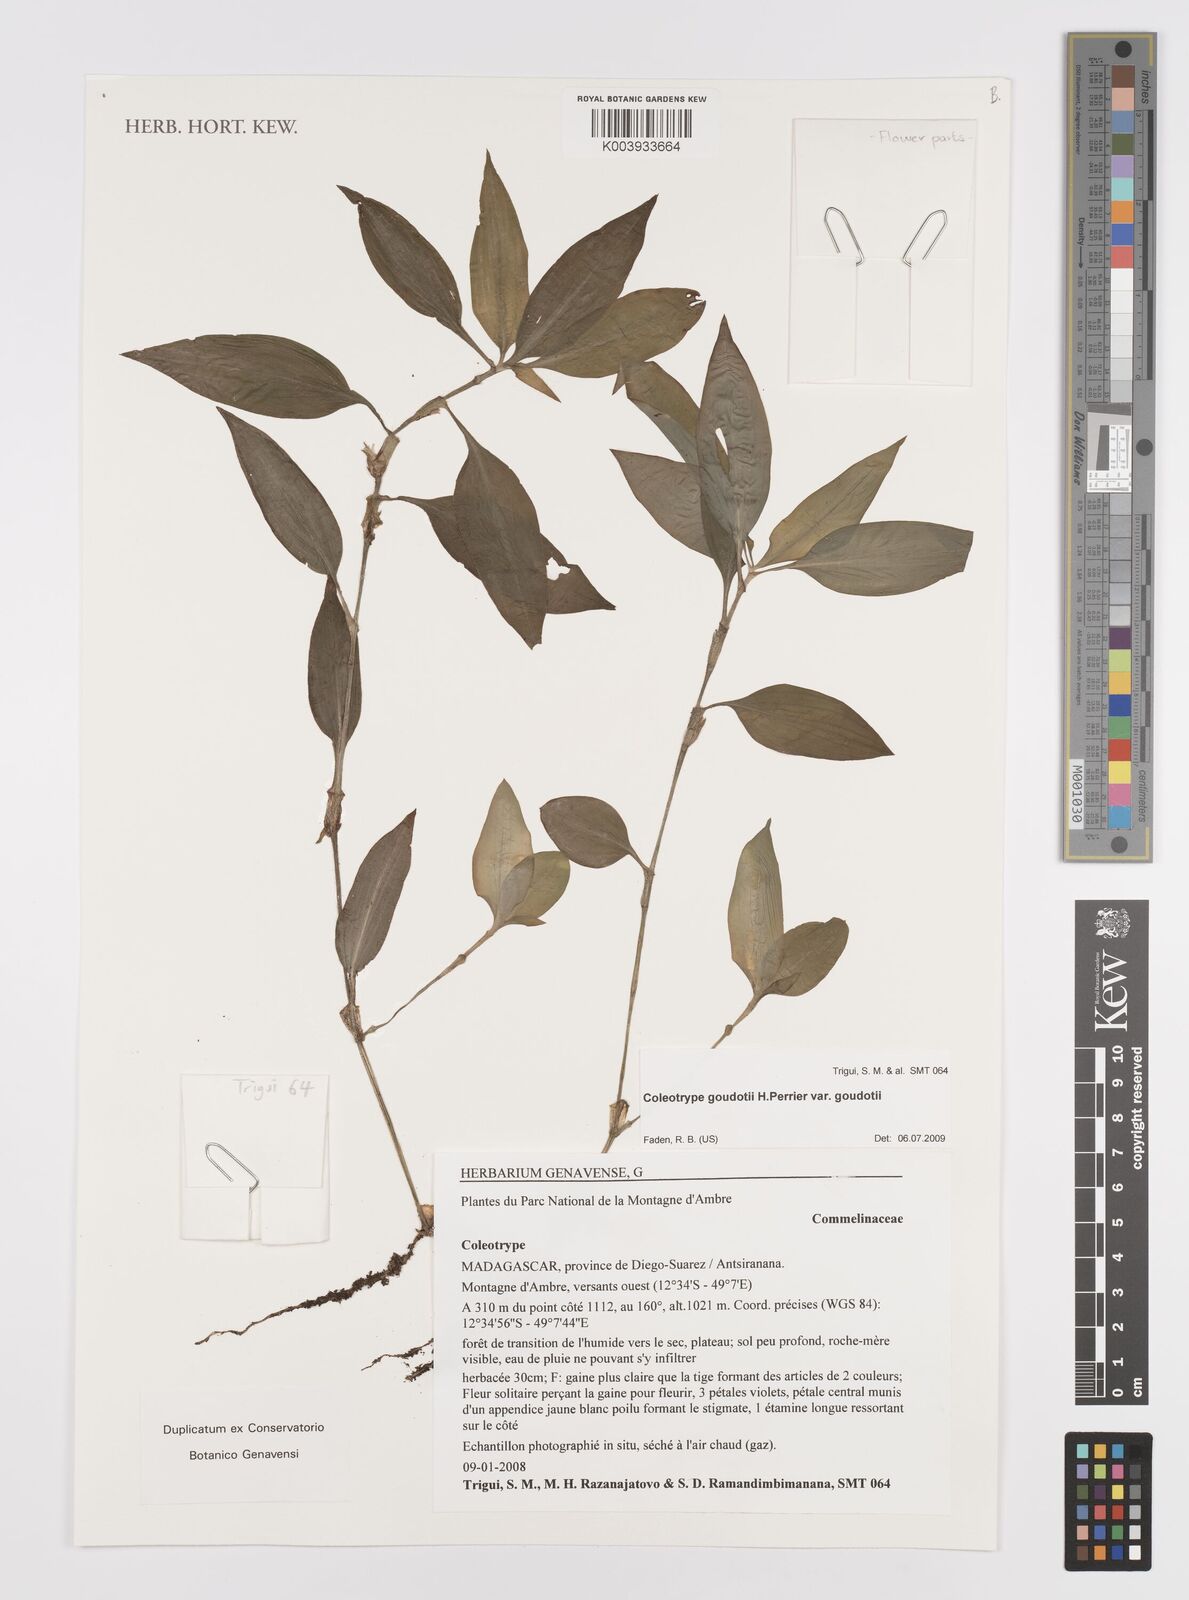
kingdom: Plantae
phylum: Tracheophyta
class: Liliopsida
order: Commelinales
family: Commelinaceae
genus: Coleotrype
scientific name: Coleotrype goudotii
